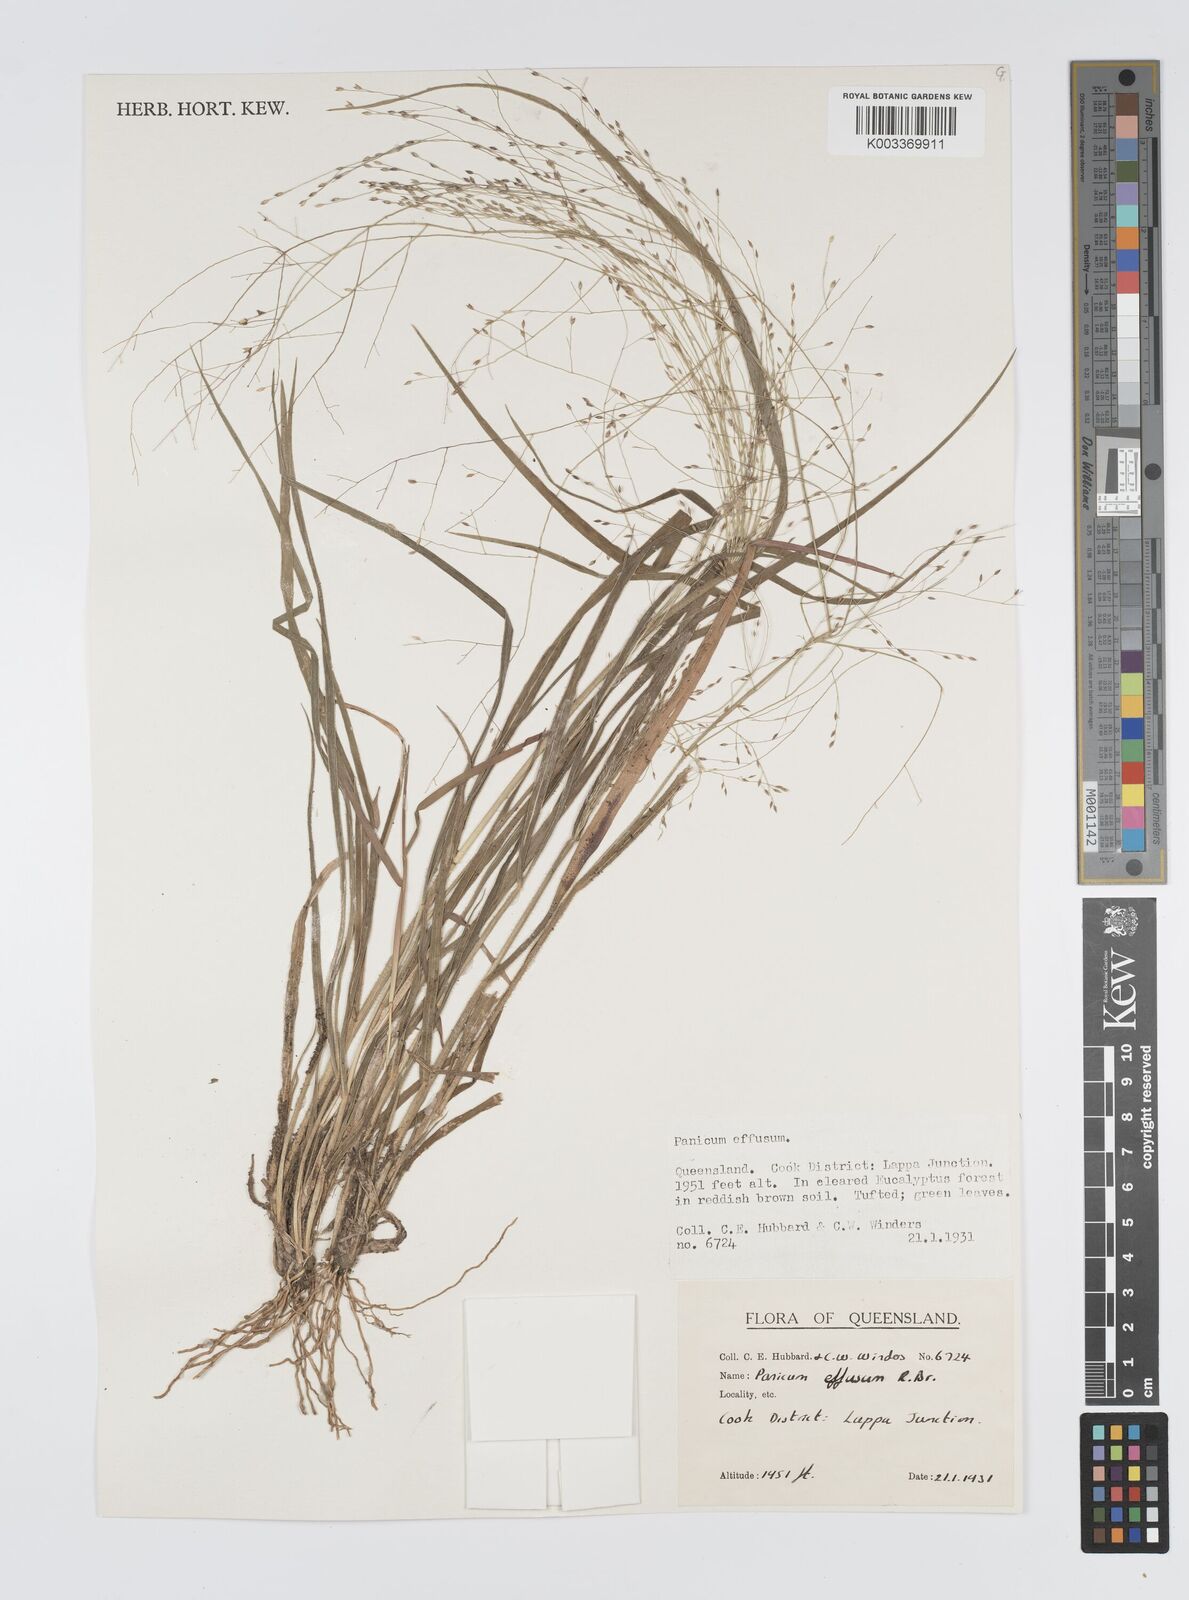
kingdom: Plantae
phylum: Tracheophyta
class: Liliopsida
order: Poales
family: Poaceae
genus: Panicum
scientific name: Panicum effusum
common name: Hairy panic grass
